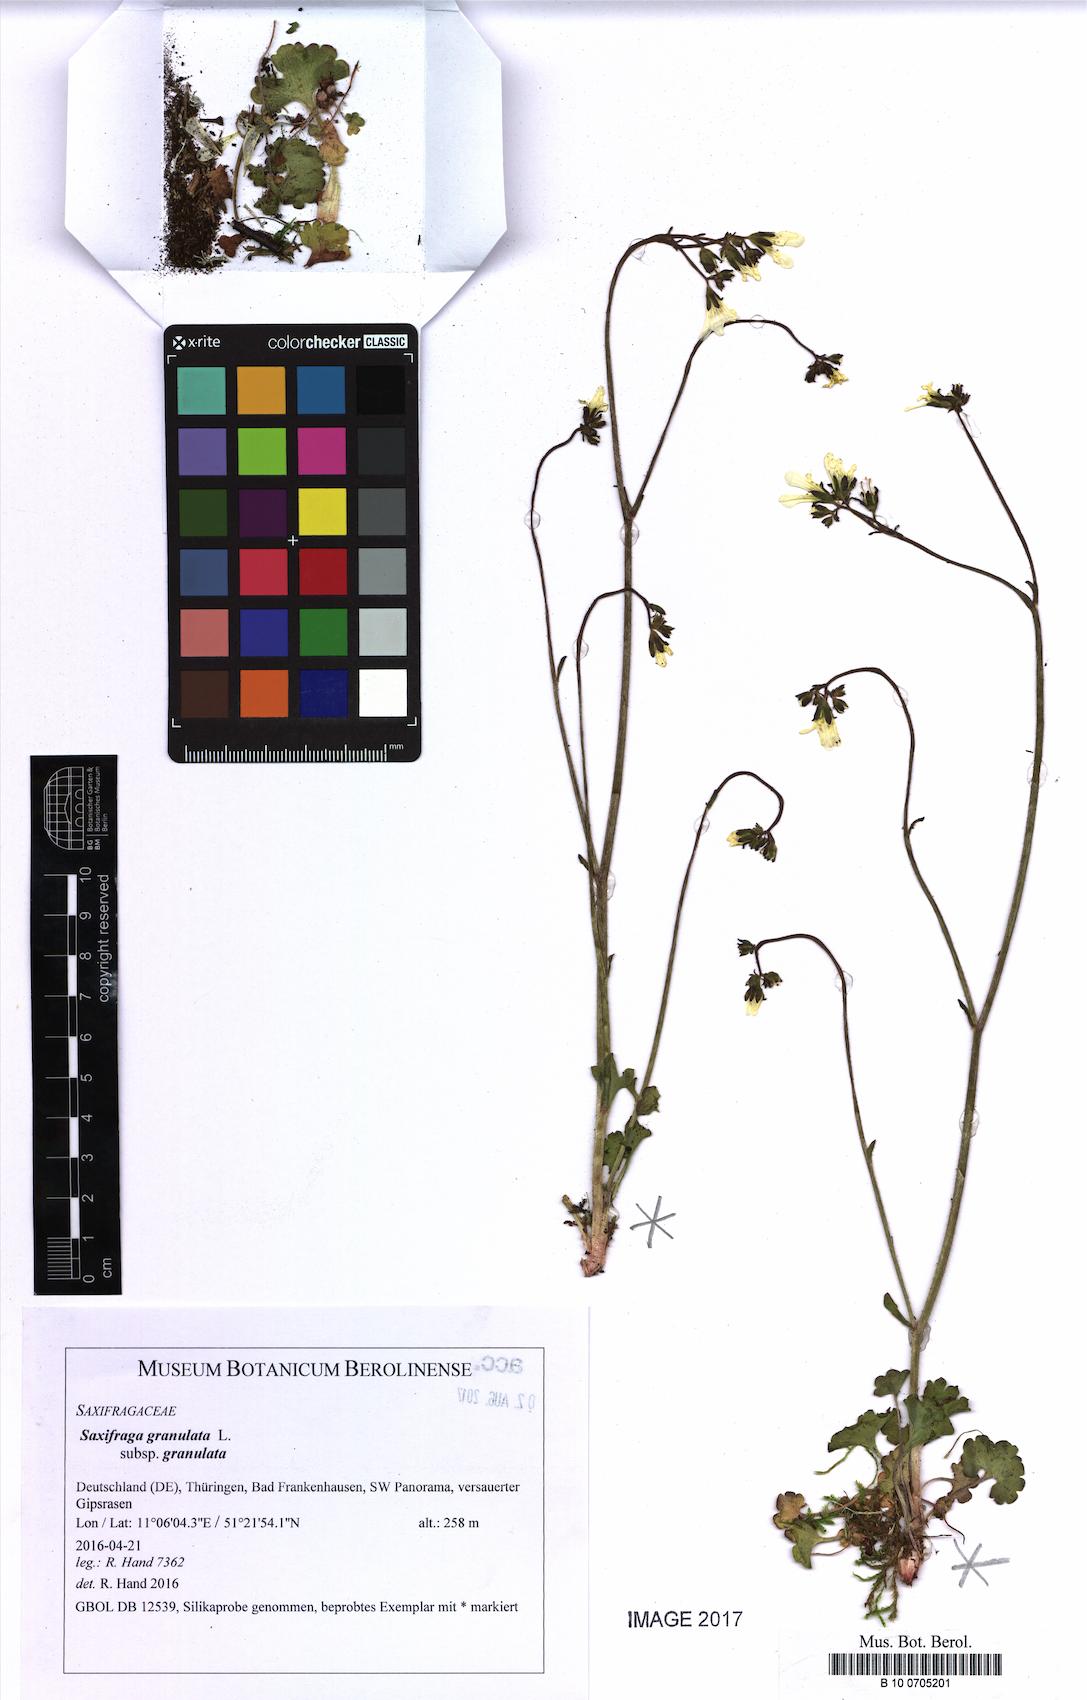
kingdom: Plantae
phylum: Tracheophyta
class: Magnoliopsida
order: Saxifragales
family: Saxifragaceae
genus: Saxifraga
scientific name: Saxifraga granulata
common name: Meadow saxifrage
